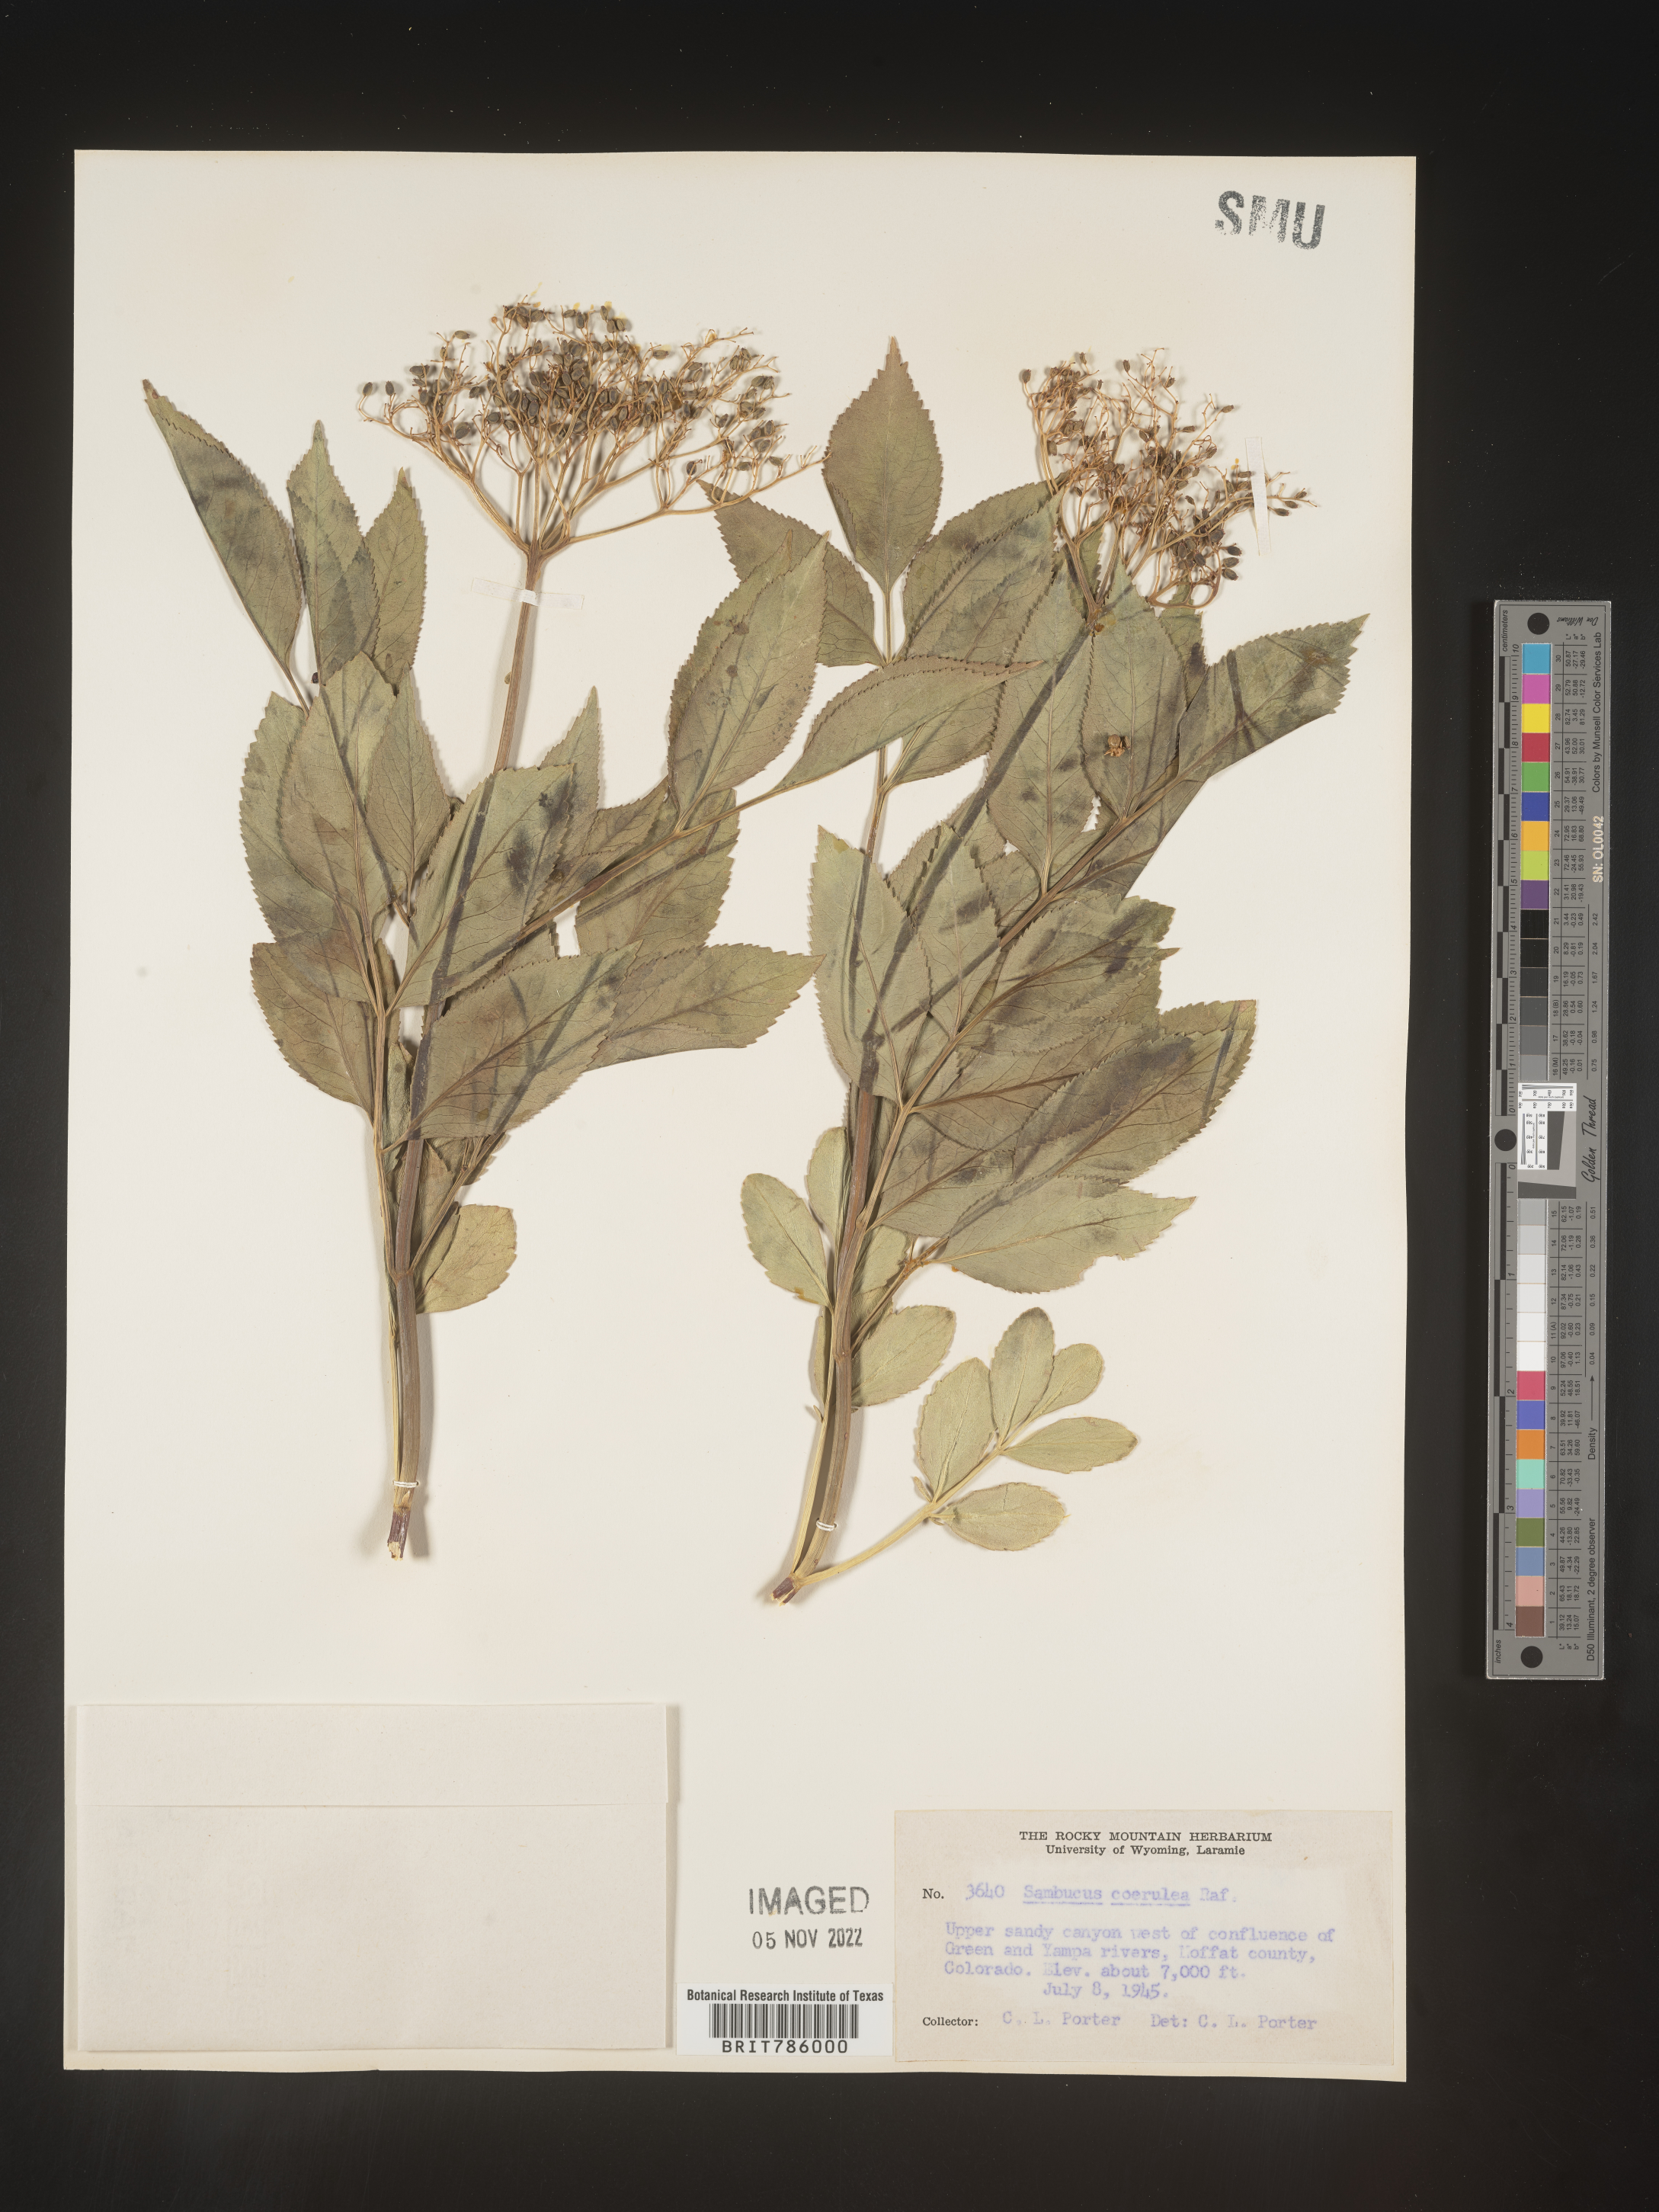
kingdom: Plantae
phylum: Tracheophyta
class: Magnoliopsida
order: Dipsacales
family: Viburnaceae
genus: Sambucus
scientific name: Sambucus caerulea
